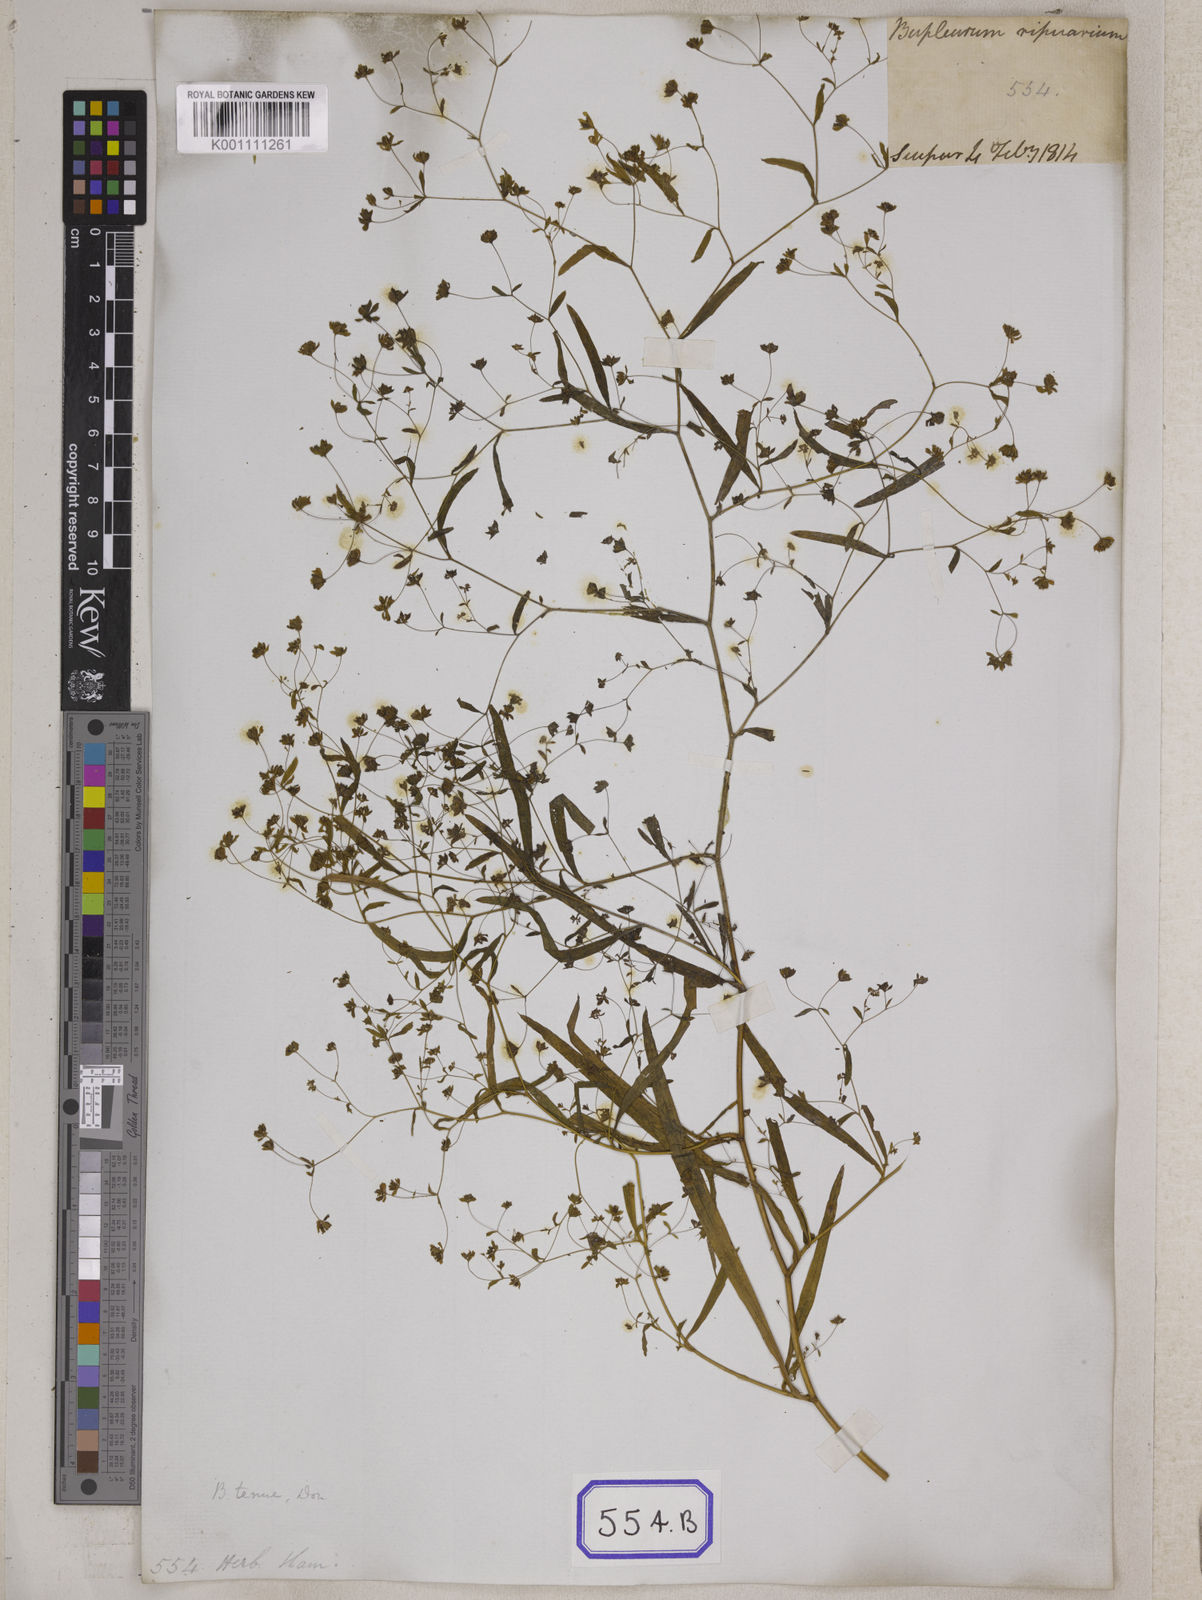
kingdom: Plantae
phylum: Tracheophyta
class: Magnoliopsida
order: Apiales
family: Apiaceae
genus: Bupleurum
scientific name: Bupleurum
